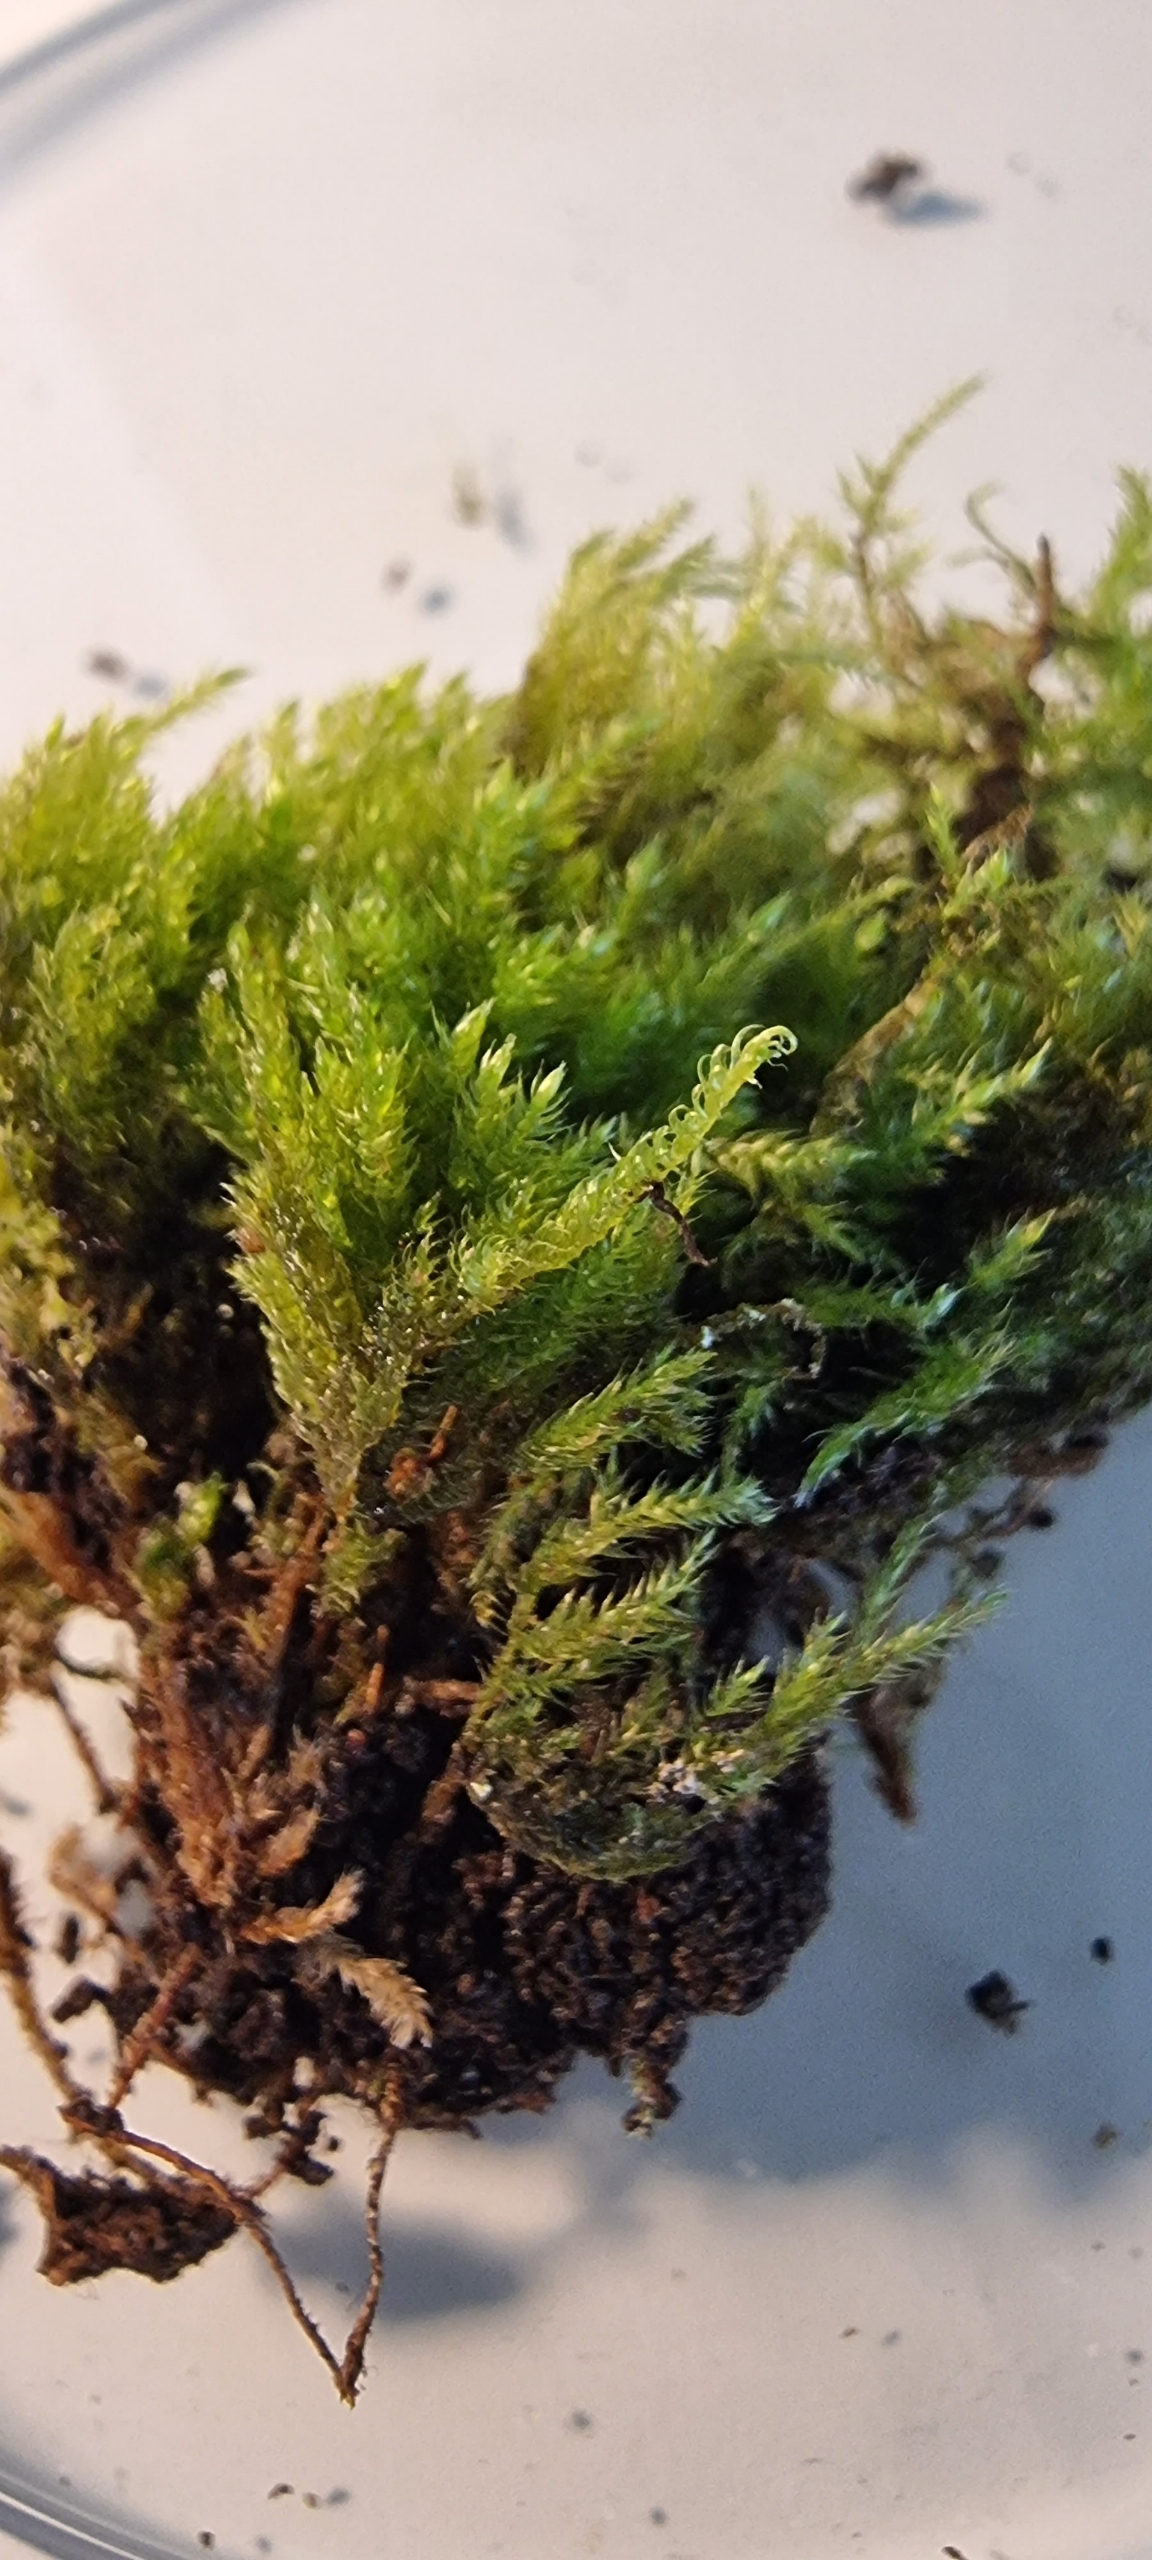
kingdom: Plantae
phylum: Bryophyta
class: Bryopsida
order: Hypnales
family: Lembophyllaceae
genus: Pseudisothecium
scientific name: Pseudisothecium myosuroides
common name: Slank stammemos
